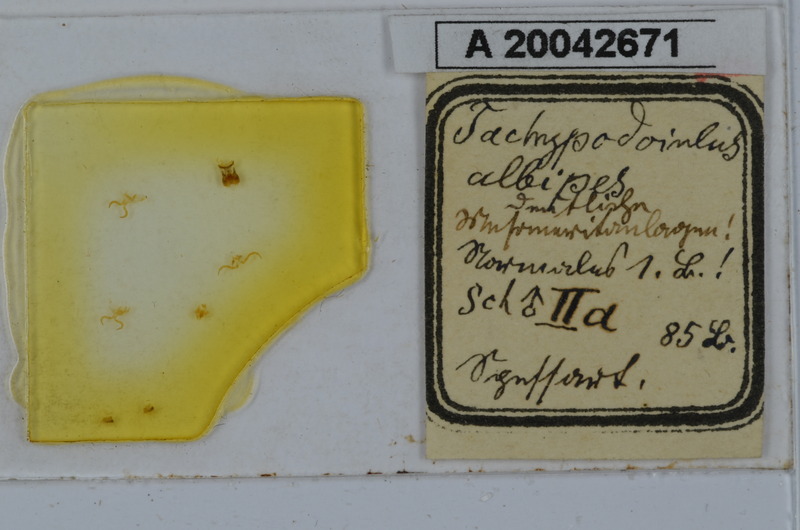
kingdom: Animalia
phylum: Arthropoda
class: Diplopoda
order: Julida
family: Julidae
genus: Tachypodoiulus
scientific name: Tachypodoiulus niger
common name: White-legged snake millipede
